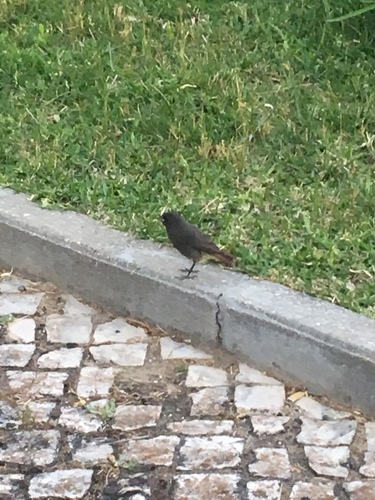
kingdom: Animalia
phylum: Chordata
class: Aves
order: Passeriformes
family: Muscicapidae
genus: Phoenicurus
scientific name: Phoenicurus ochruros
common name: Black redstart
